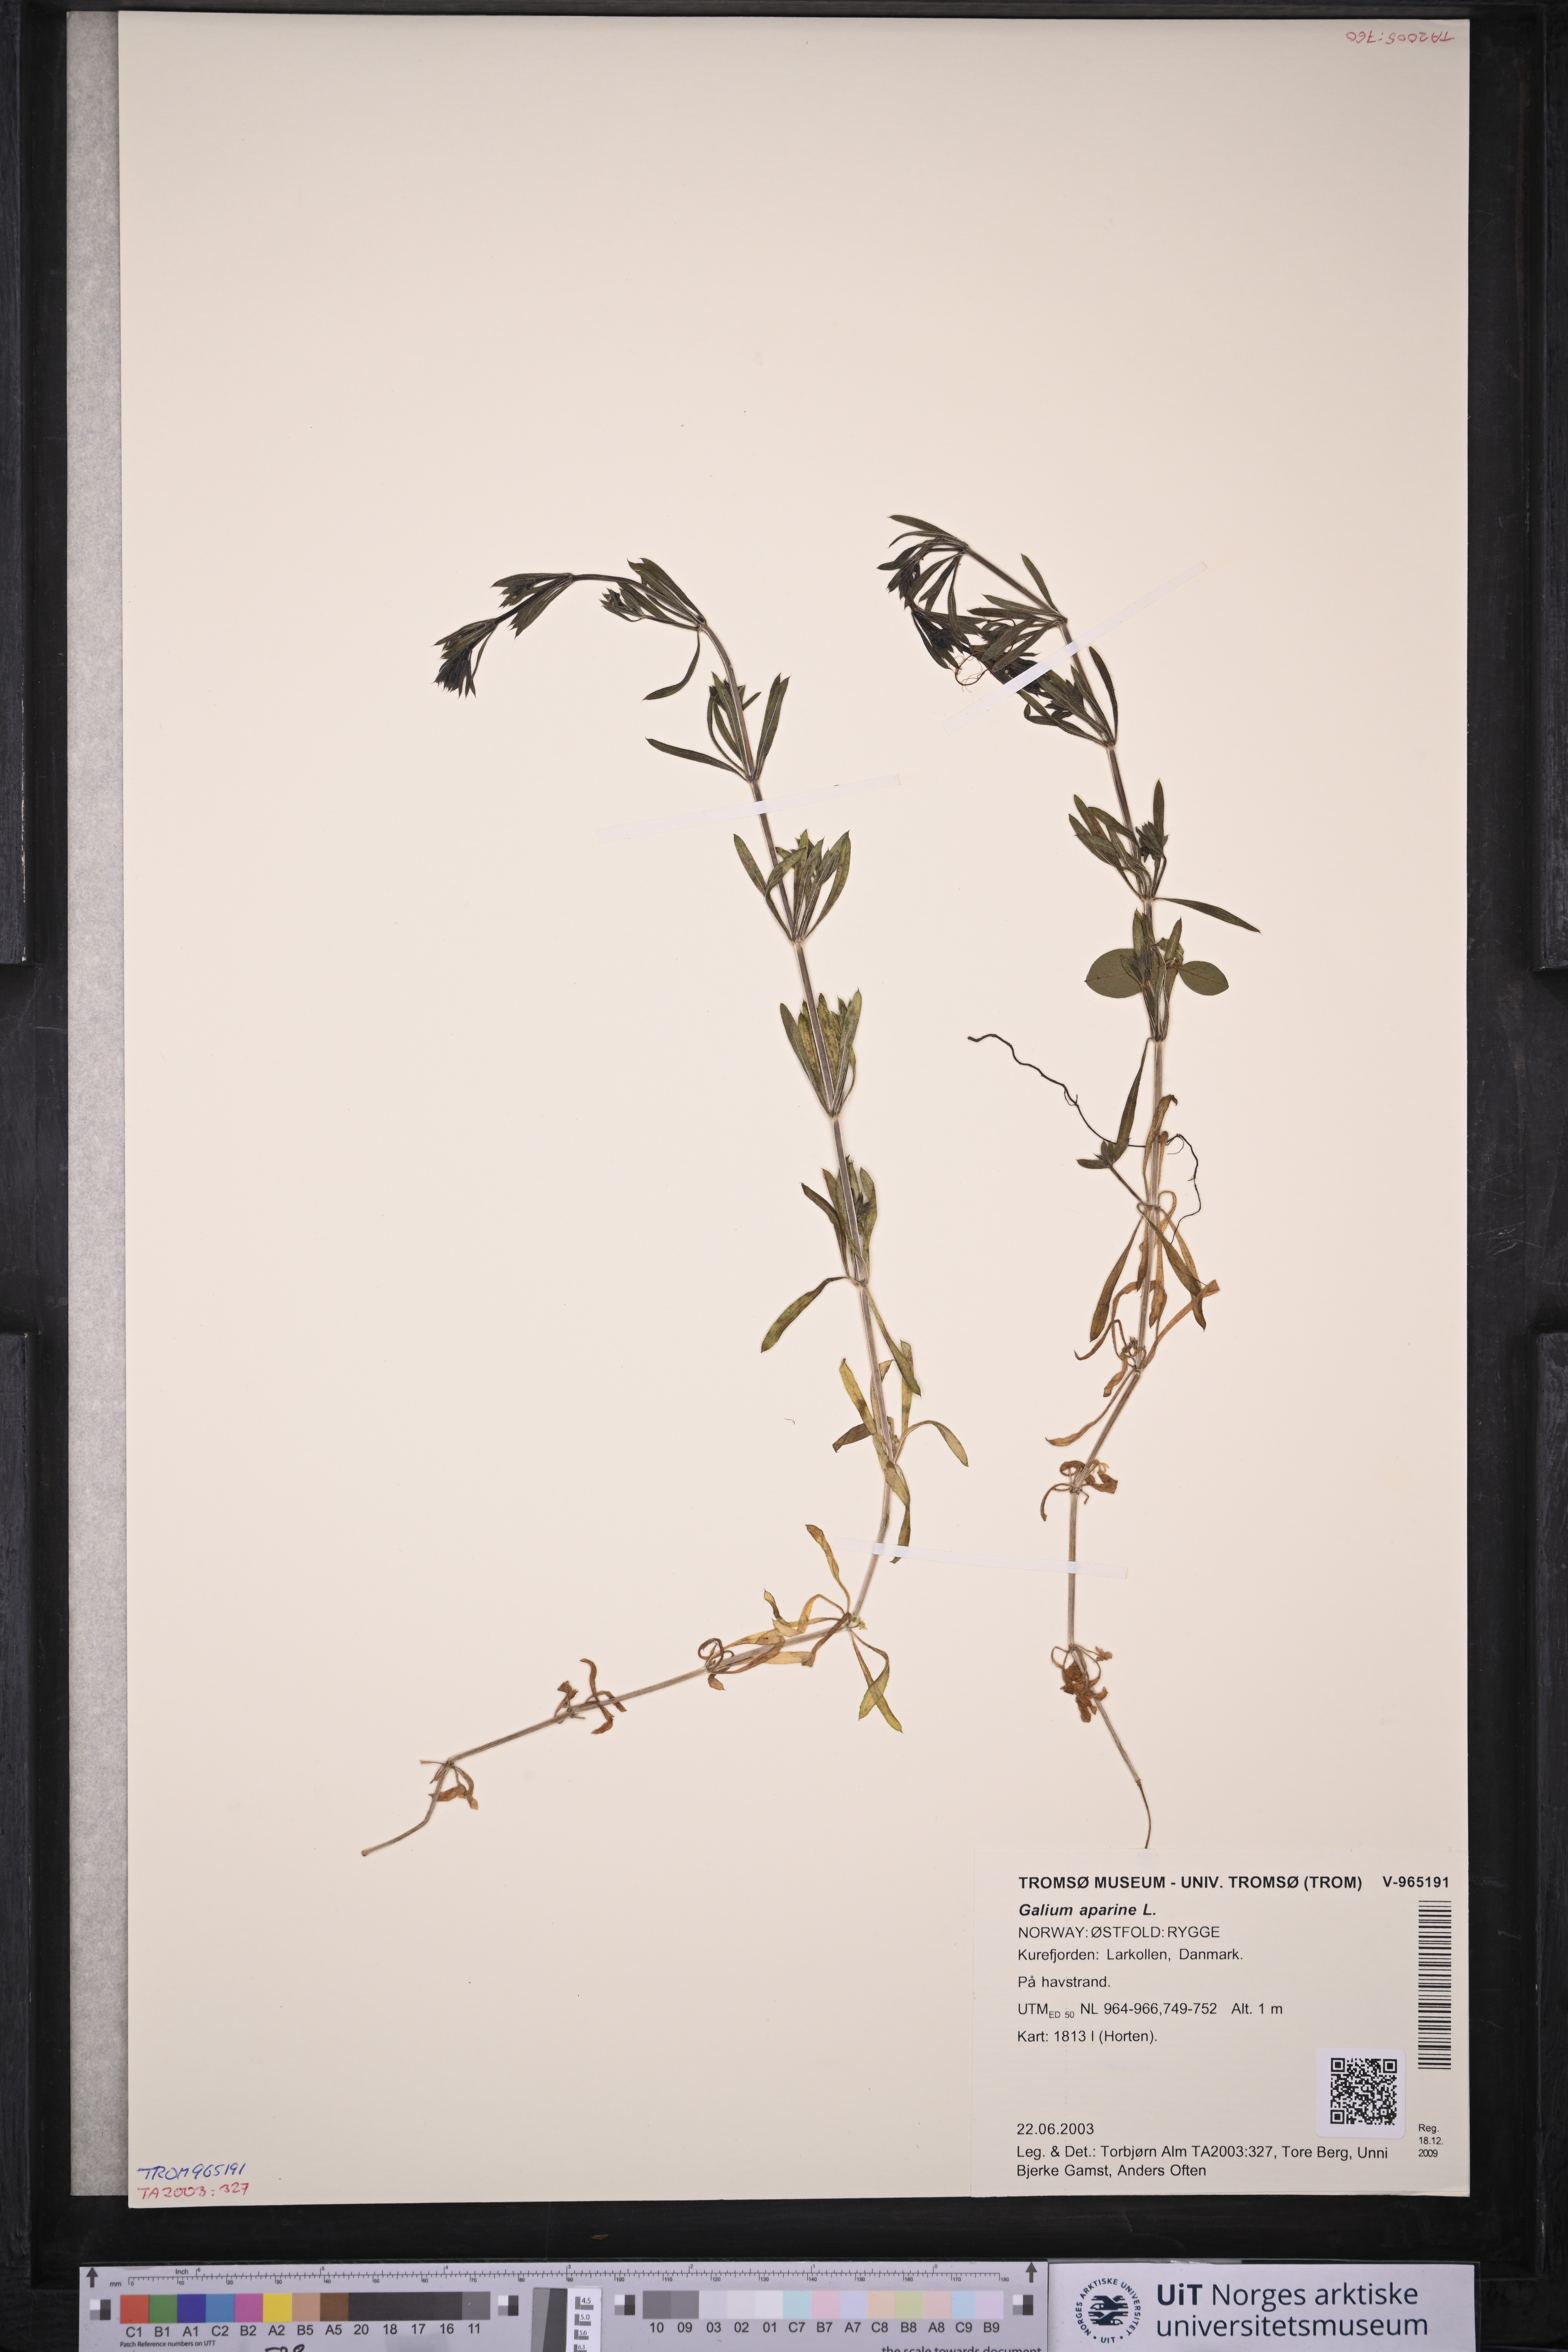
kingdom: Plantae
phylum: Tracheophyta
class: Magnoliopsida
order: Gentianales
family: Rubiaceae
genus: Galium
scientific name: Galium aparine
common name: Cleavers
